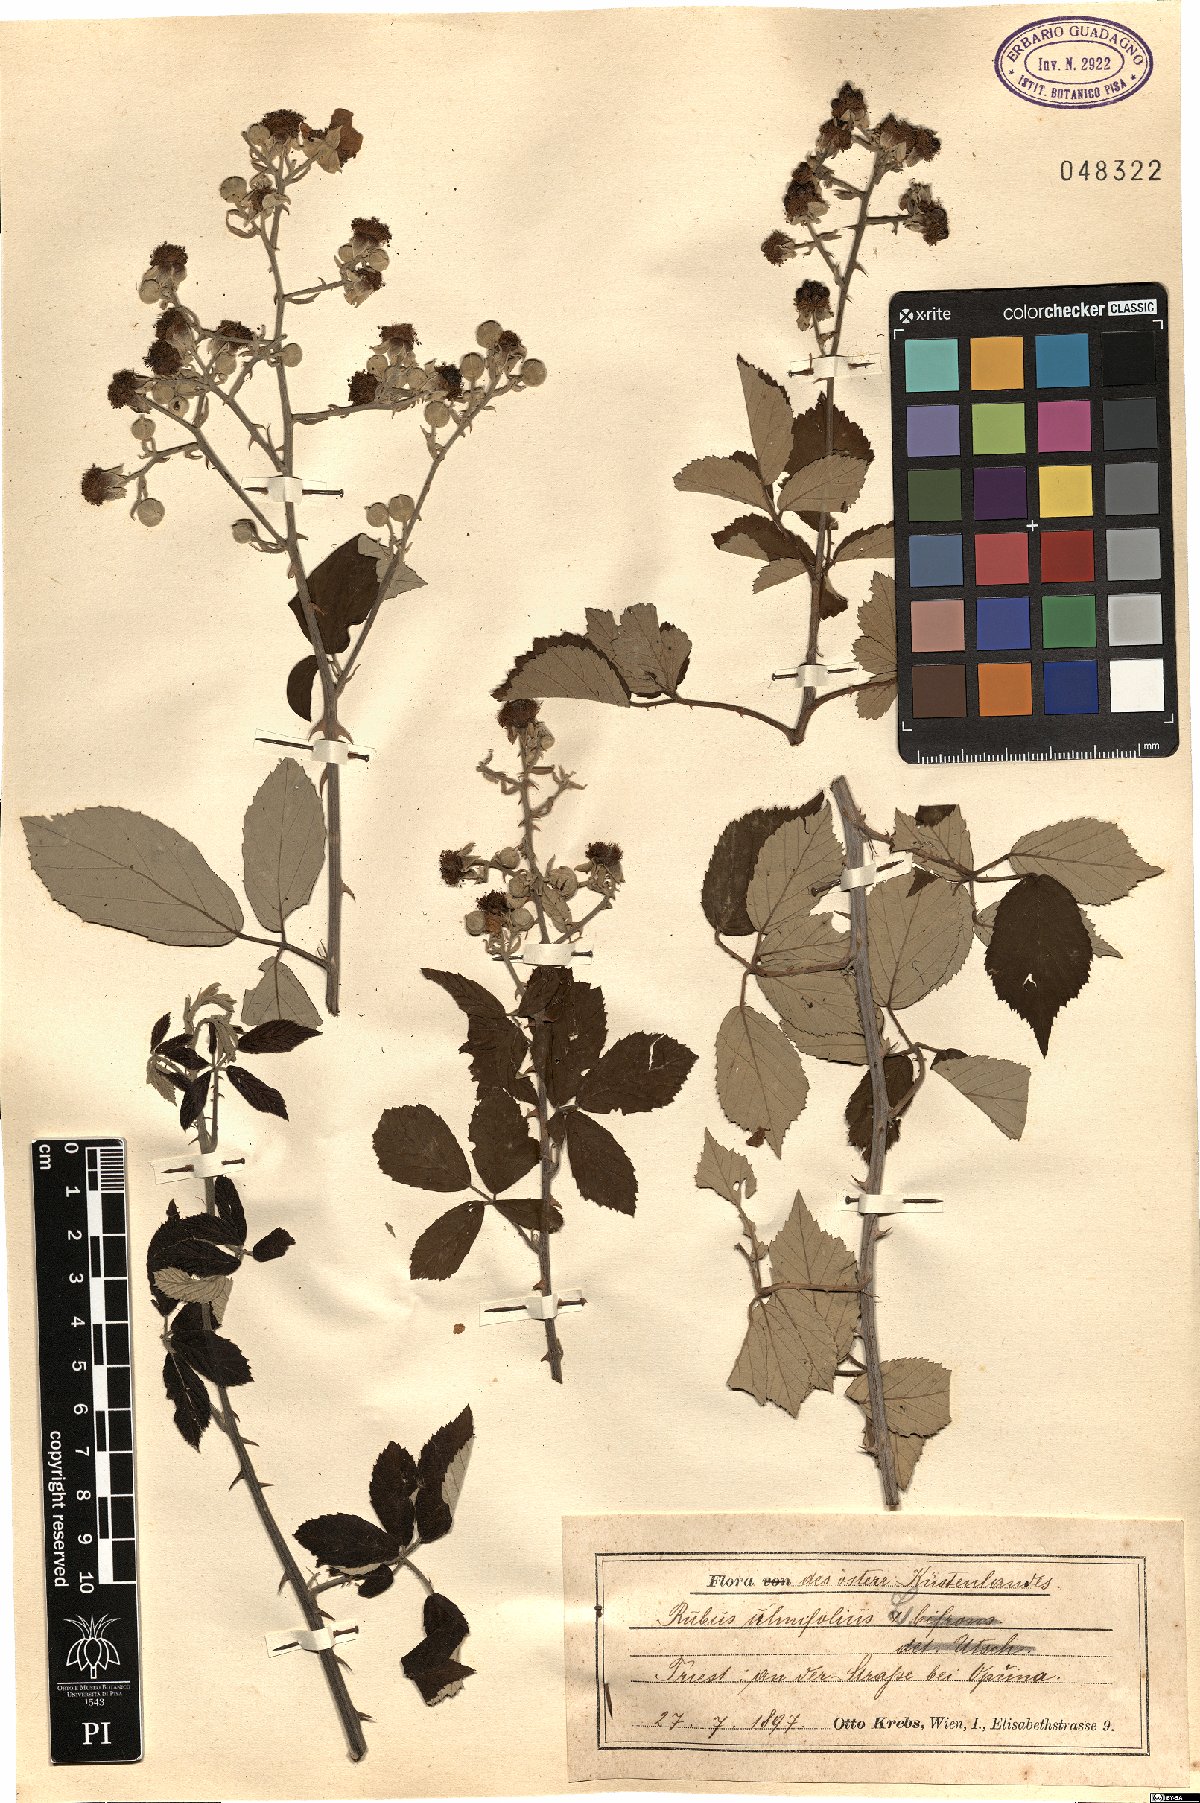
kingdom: Plantae
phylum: Tracheophyta
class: Magnoliopsida
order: Rosales
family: Rosaceae
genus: Rubus
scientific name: Rubus ulmifolius
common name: Elmleaf blackberry
